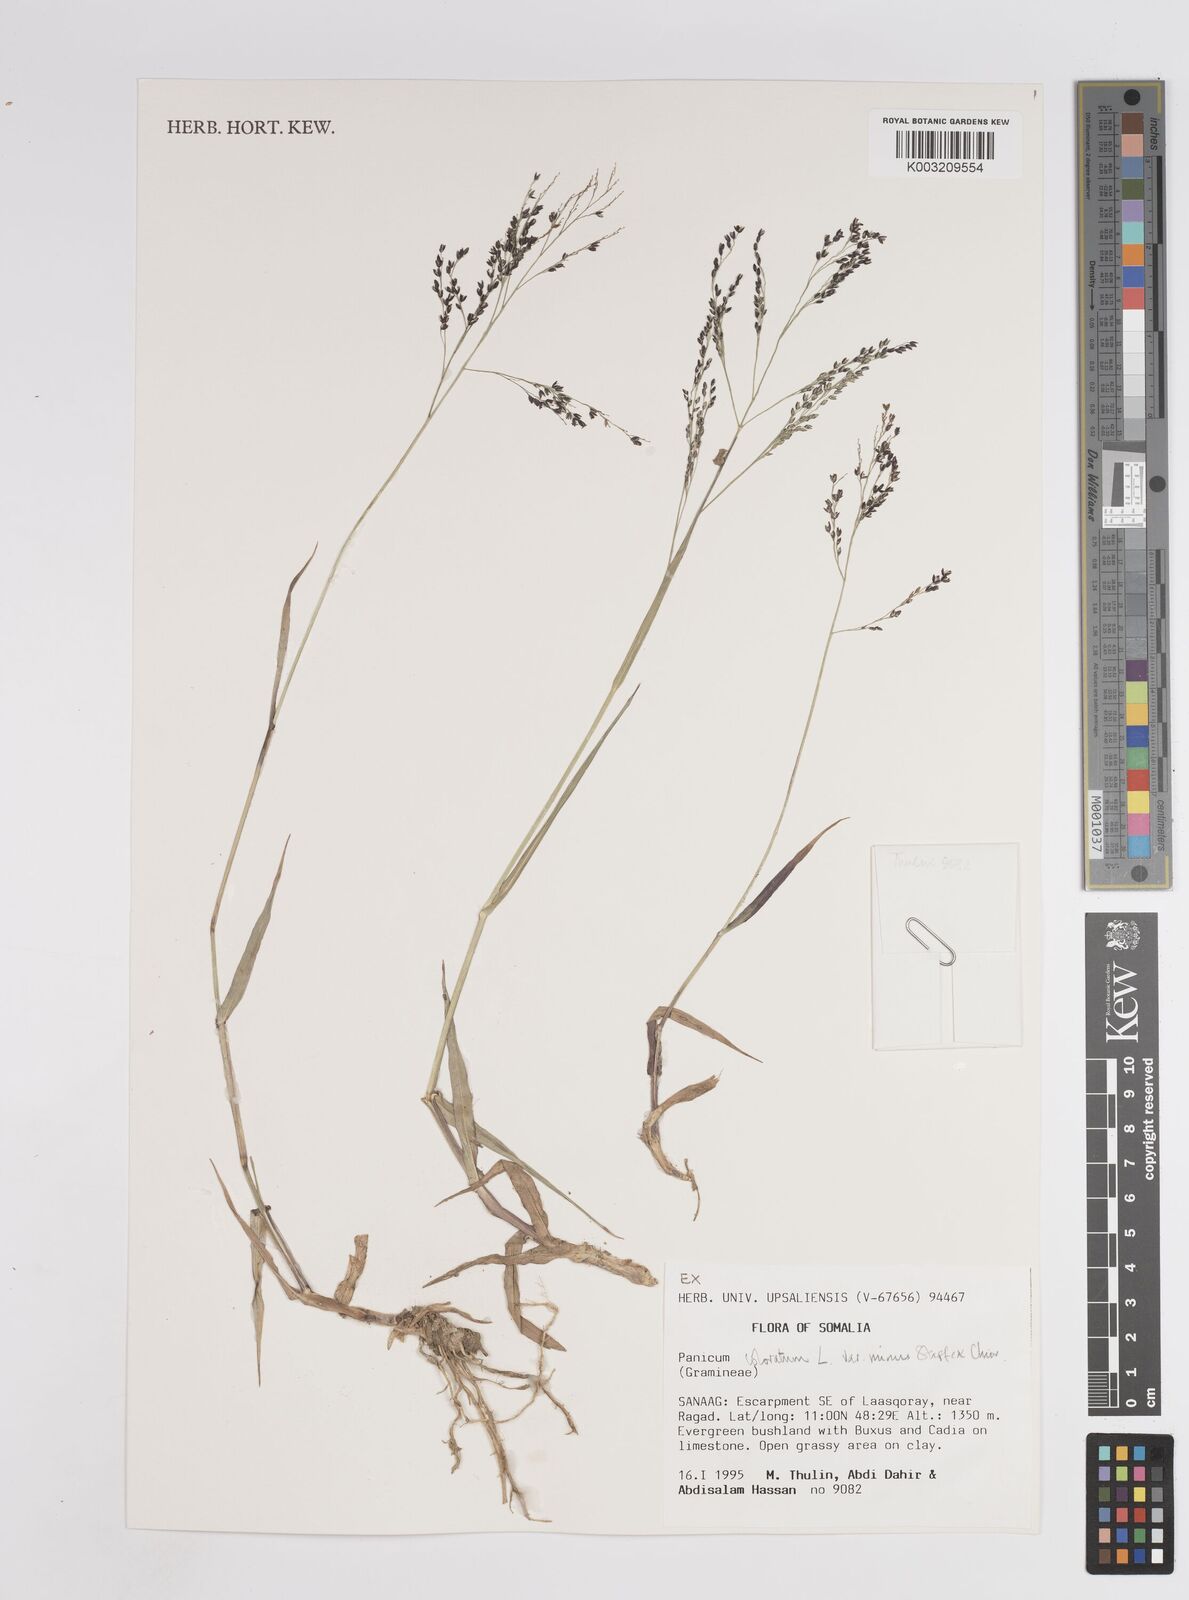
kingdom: Plantae
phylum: Tracheophyta
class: Liliopsida
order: Poales
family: Poaceae
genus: Panicum
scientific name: Panicum coloratum
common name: Kleingrass
